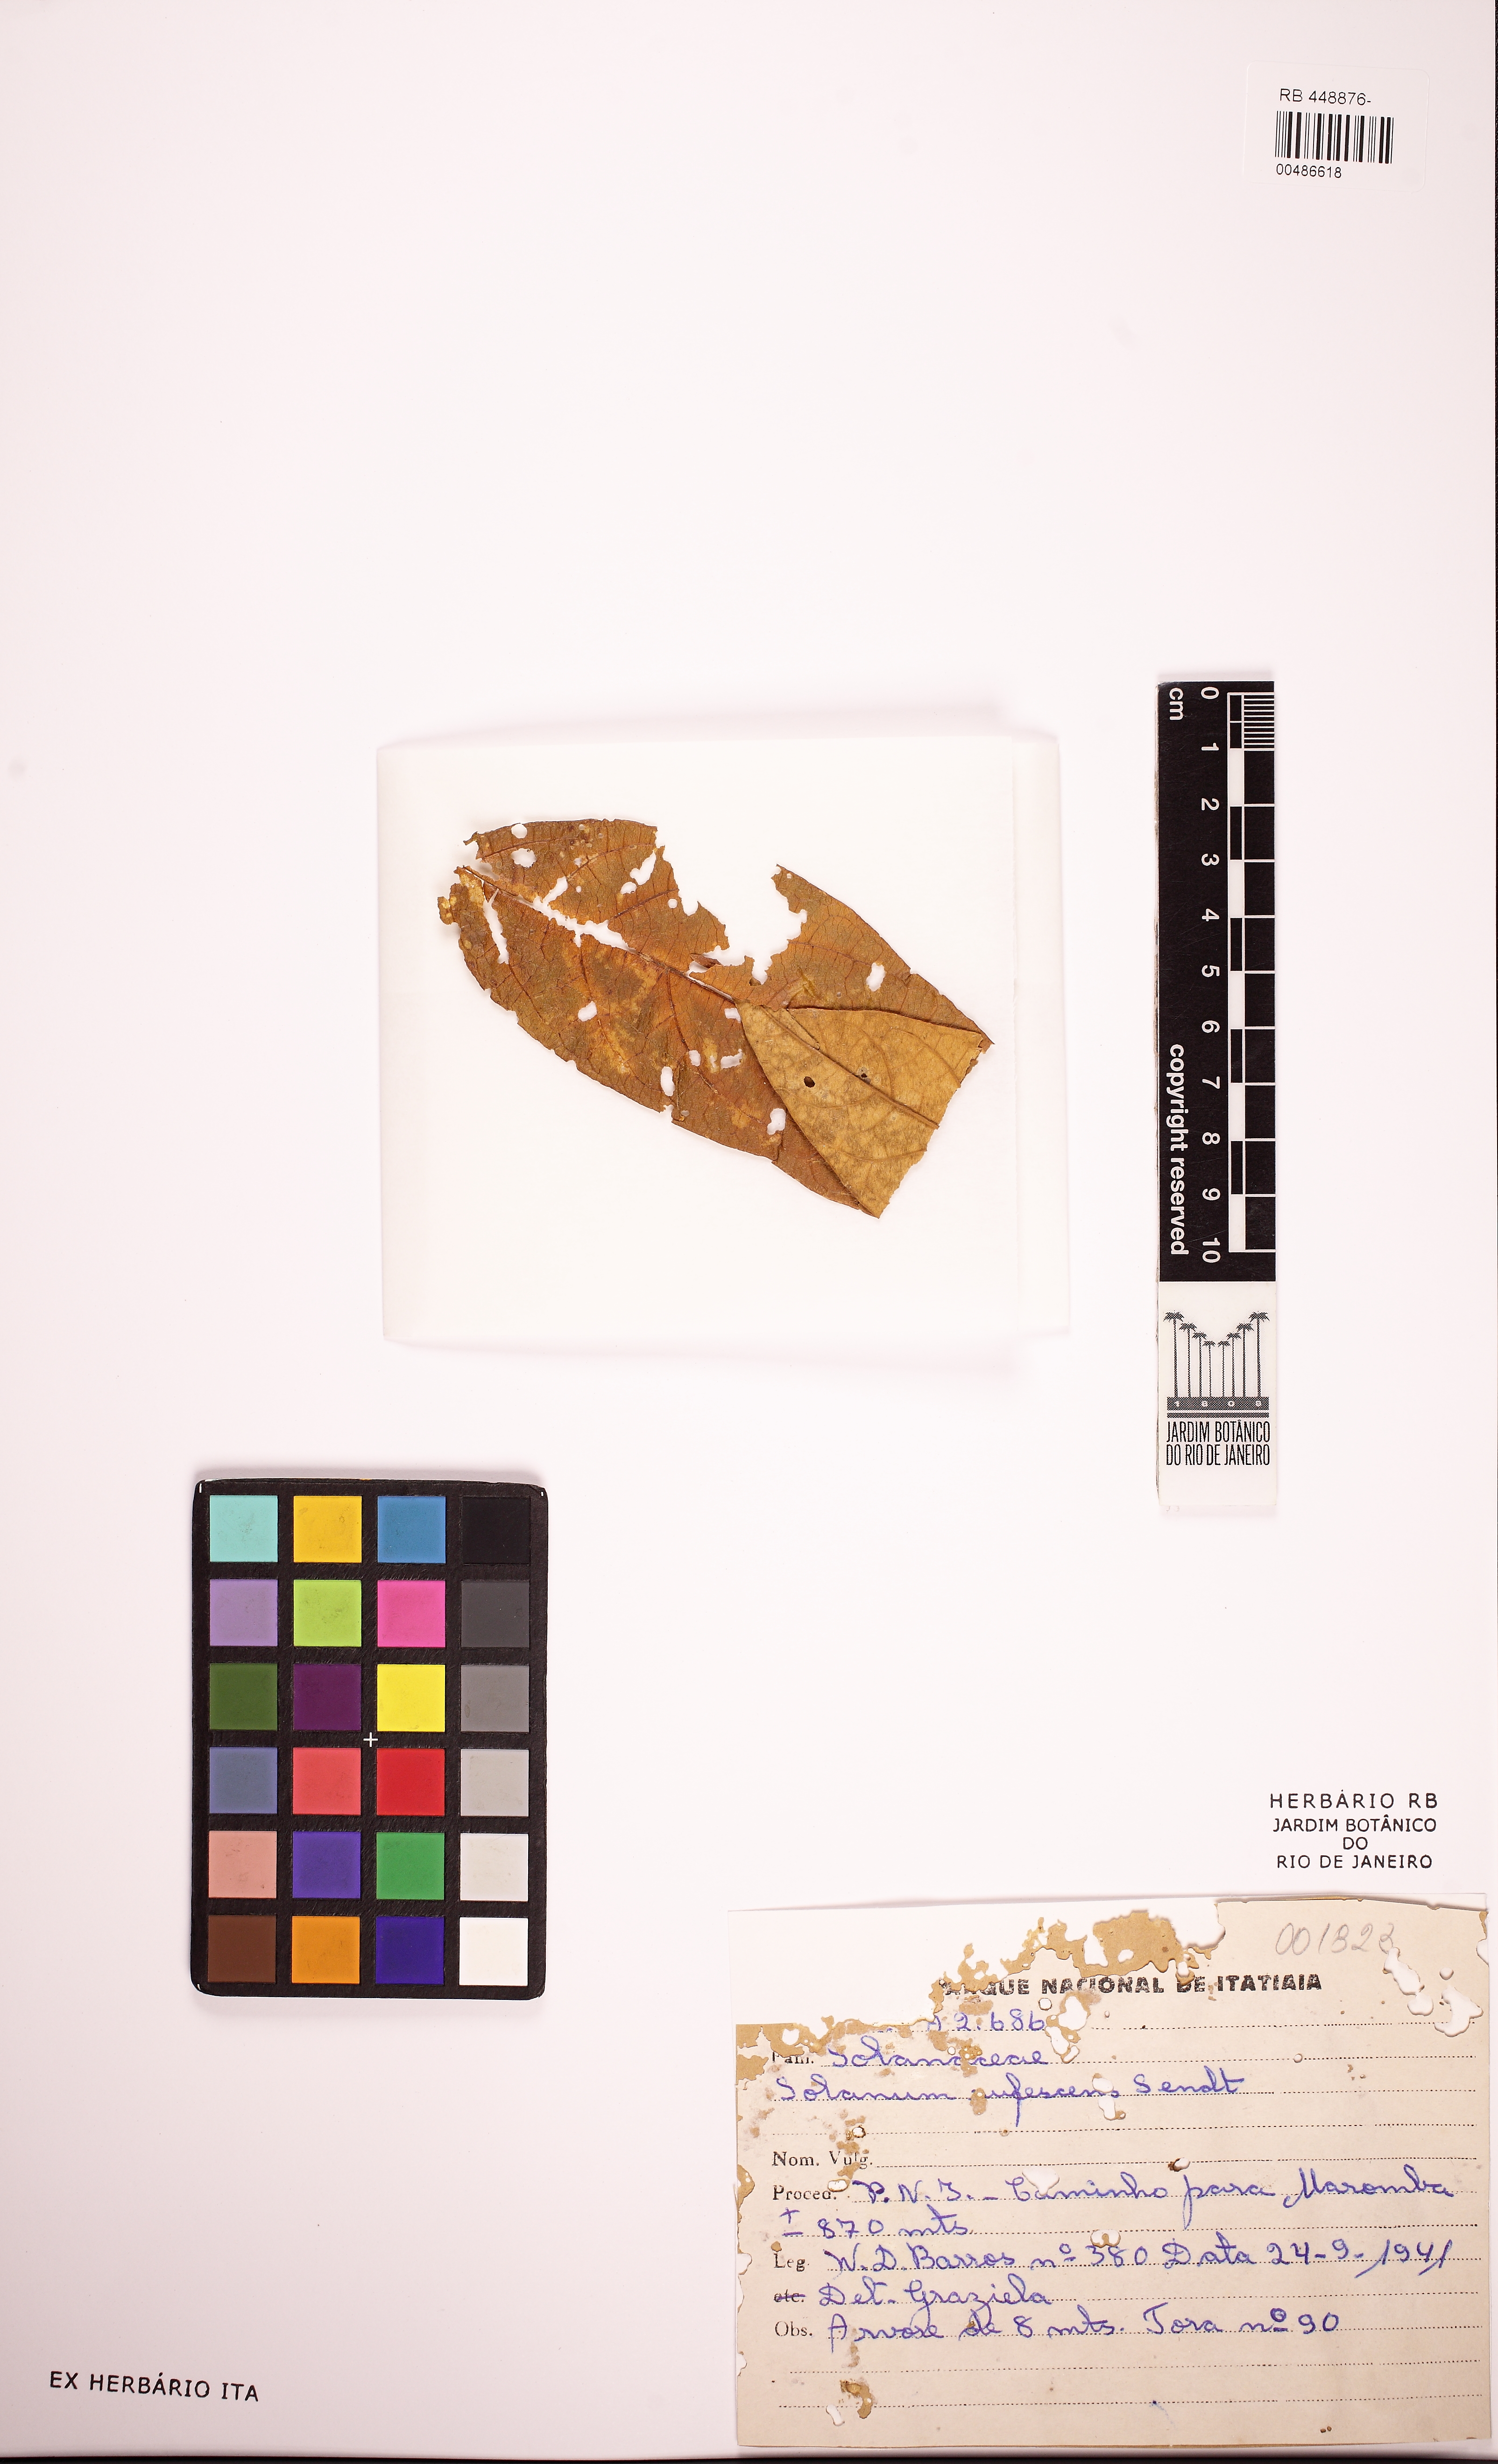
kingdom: Plantae
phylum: Tracheophyta
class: Magnoliopsida
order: Solanales
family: Solanaceae
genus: Solanum
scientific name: Solanum rufescens
